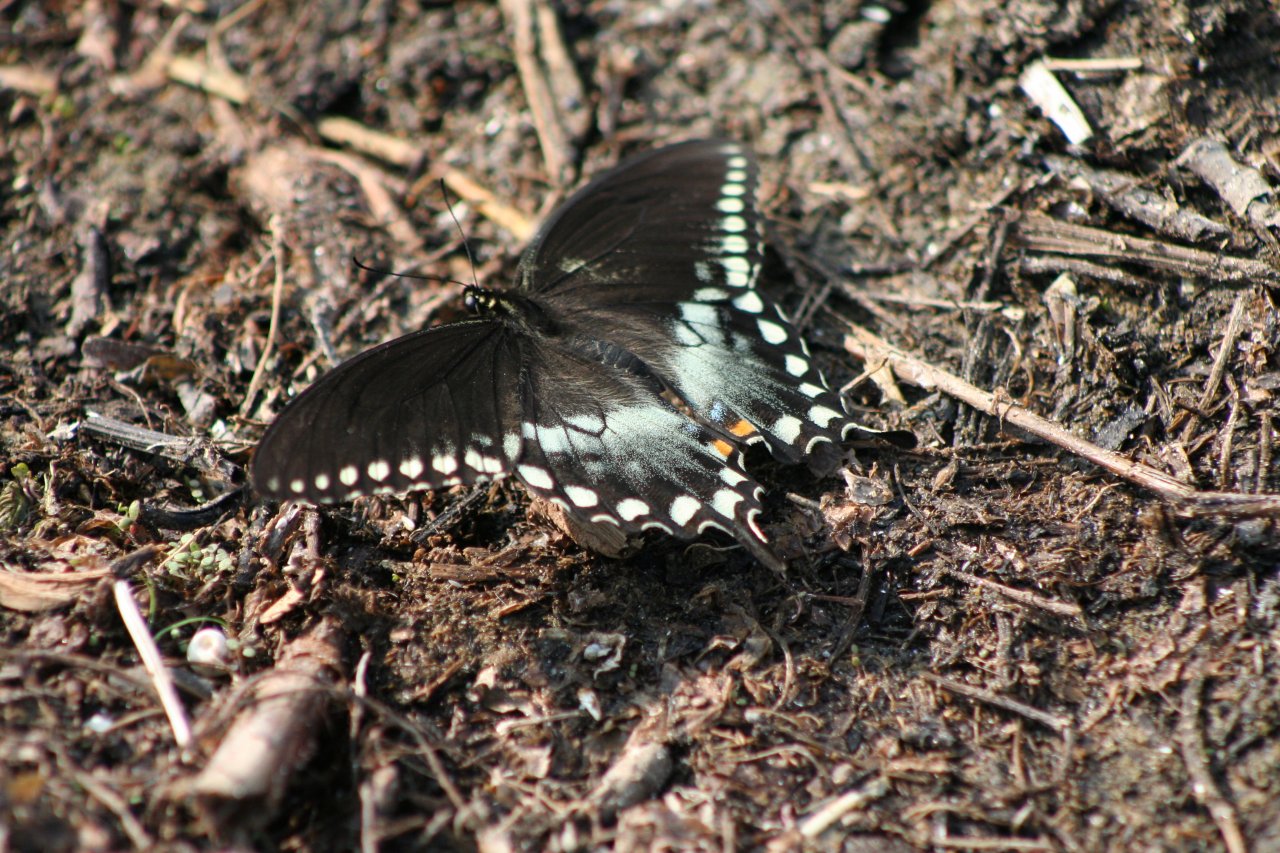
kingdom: Animalia
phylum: Arthropoda
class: Insecta
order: Lepidoptera
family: Papilionidae
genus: Pterourus
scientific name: Pterourus troilus
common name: Spicebush Swallowtail
